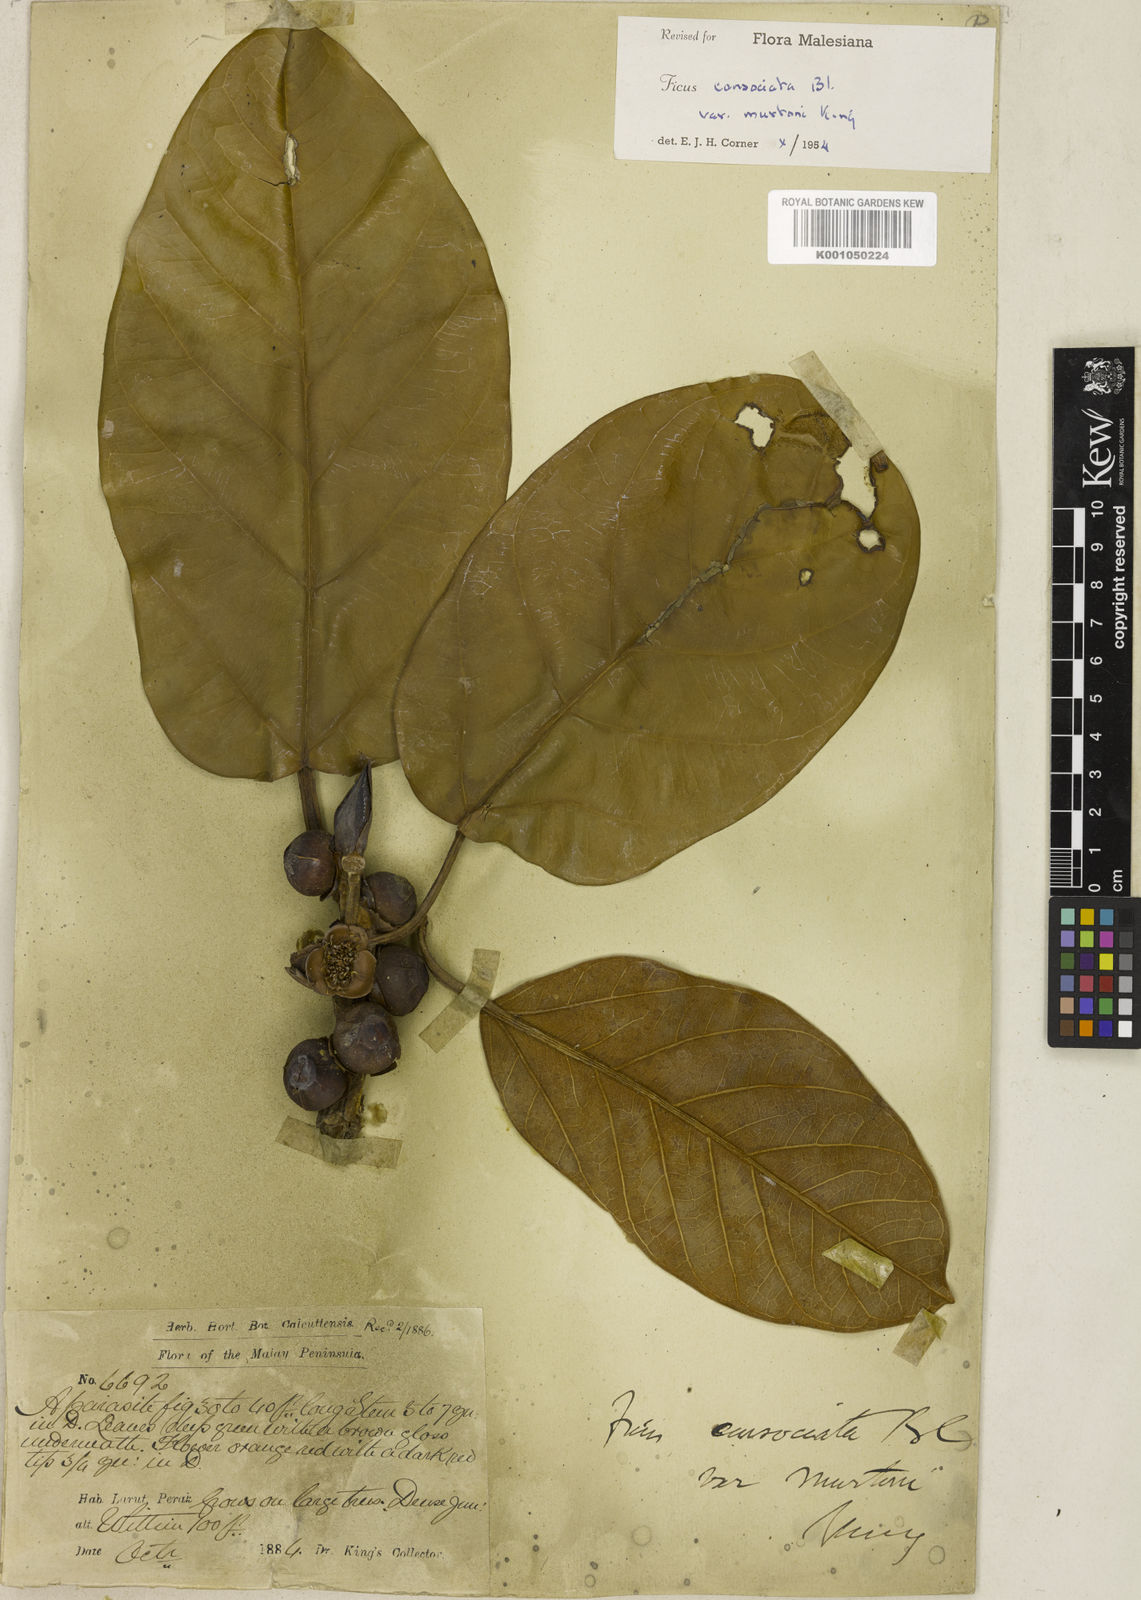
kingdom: Plantae
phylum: Tracheophyta
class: Magnoliopsida
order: Rosales
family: Moraceae
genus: Ficus
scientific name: Ficus consociata
